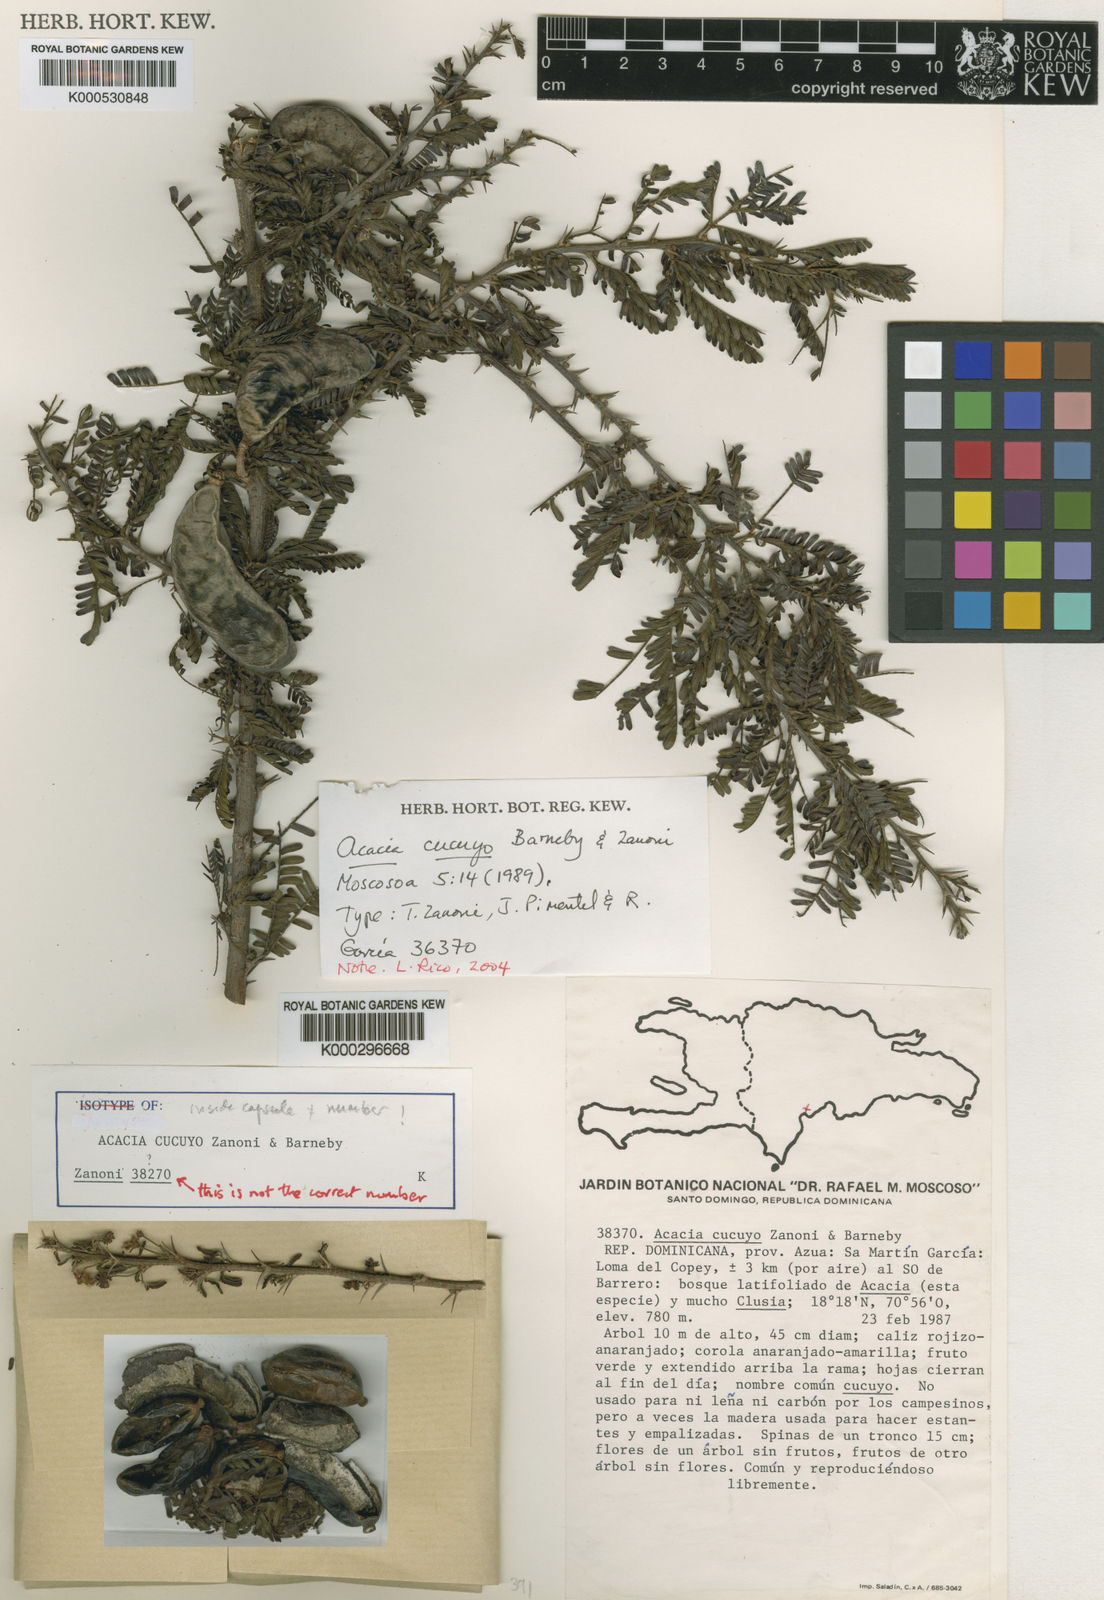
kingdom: Plantae
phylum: Tracheophyta
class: Magnoliopsida
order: Fabales
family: Fabaceae
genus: Vachellia
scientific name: Vachellia cucuyo
